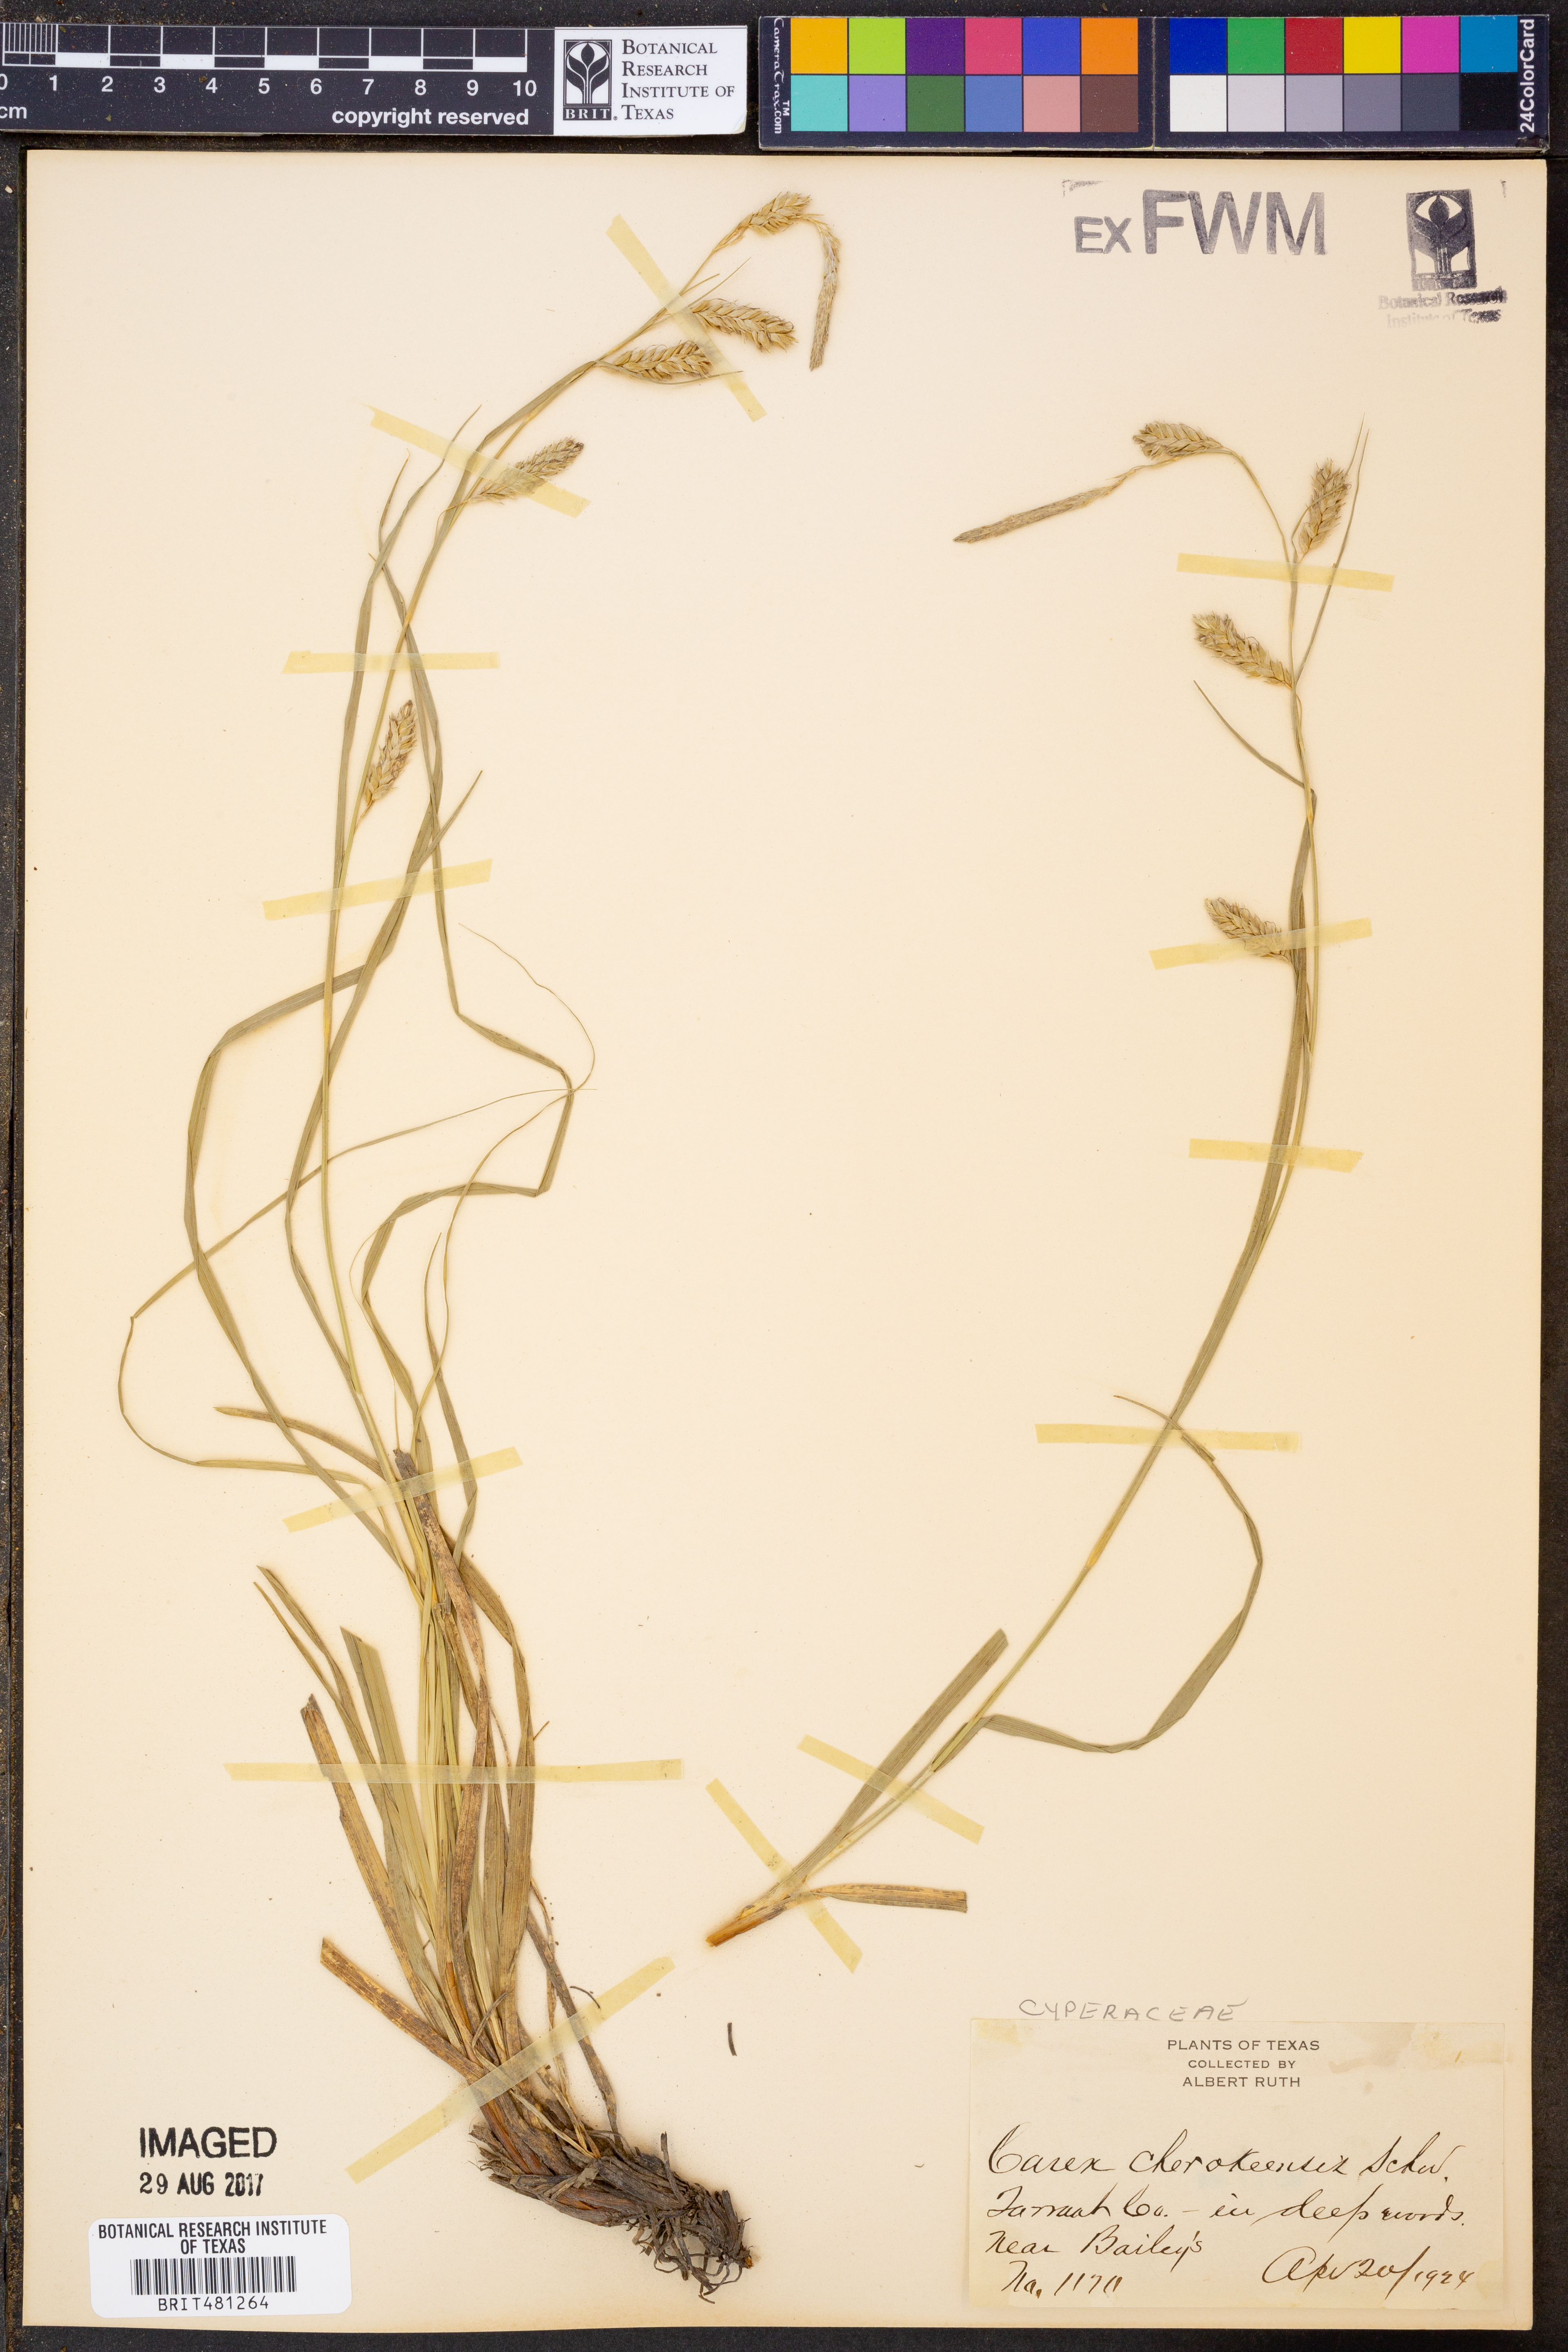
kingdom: Plantae
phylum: Tracheophyta
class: Liliopsida
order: Poales
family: Cyperaceae
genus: Carex
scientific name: Carex cherokeensis
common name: Cherokee sedge
